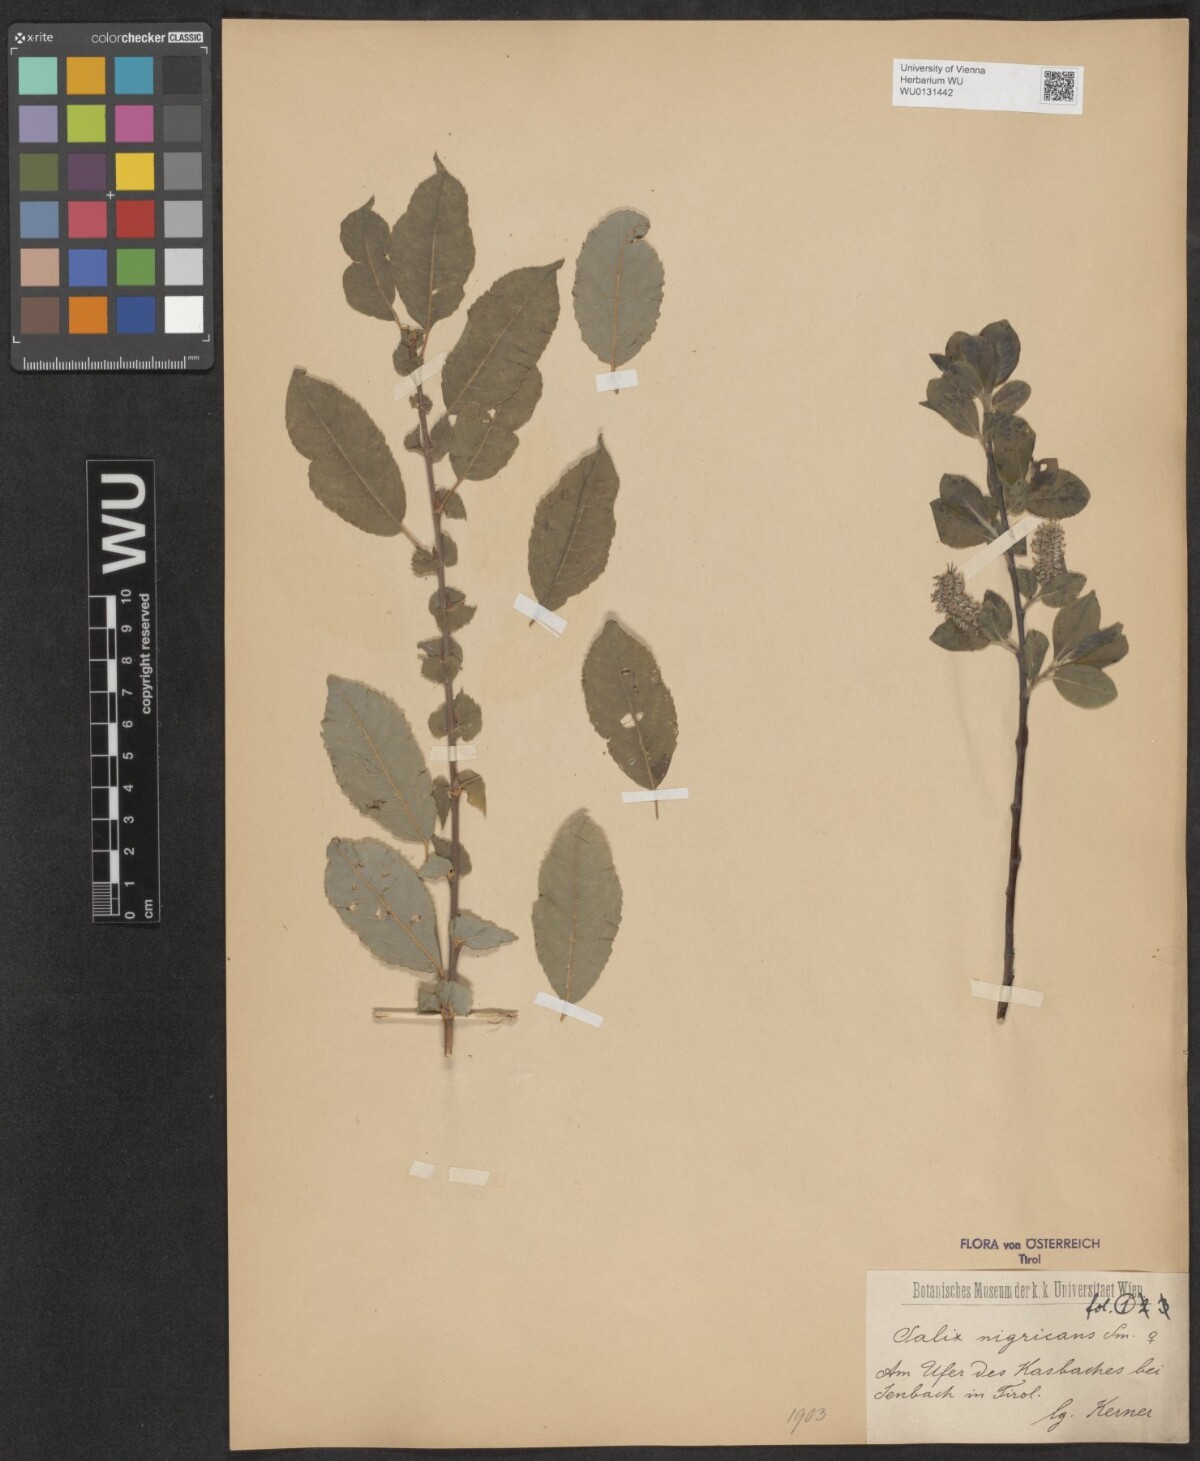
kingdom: Plantae
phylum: Tracheophyta
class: Magnoliopsida
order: Malpighiales
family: Salicaceae
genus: Salix
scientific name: Salix myrsinifolia
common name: Dark-leaved willow
